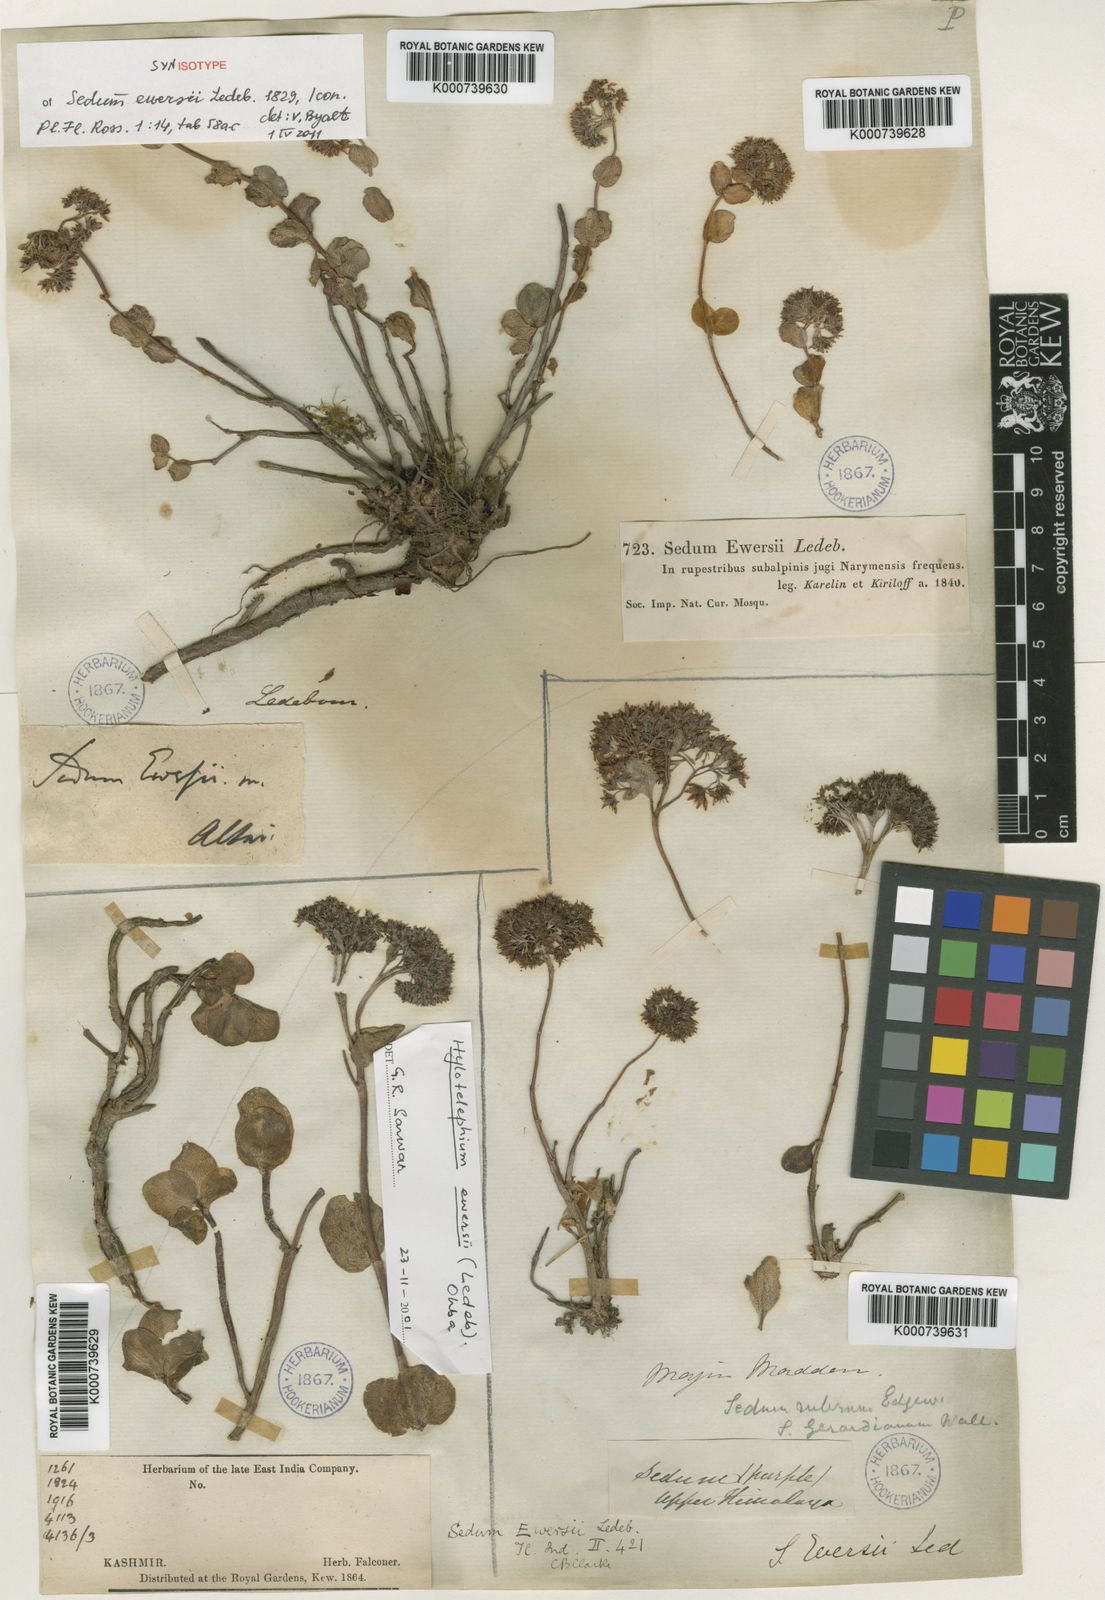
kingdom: Plantae
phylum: Tracheophyta
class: Magnoliopsida
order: Saxifragales
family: Crassulaceae
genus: Hylotelephium
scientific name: Hylotelephium ewersii
